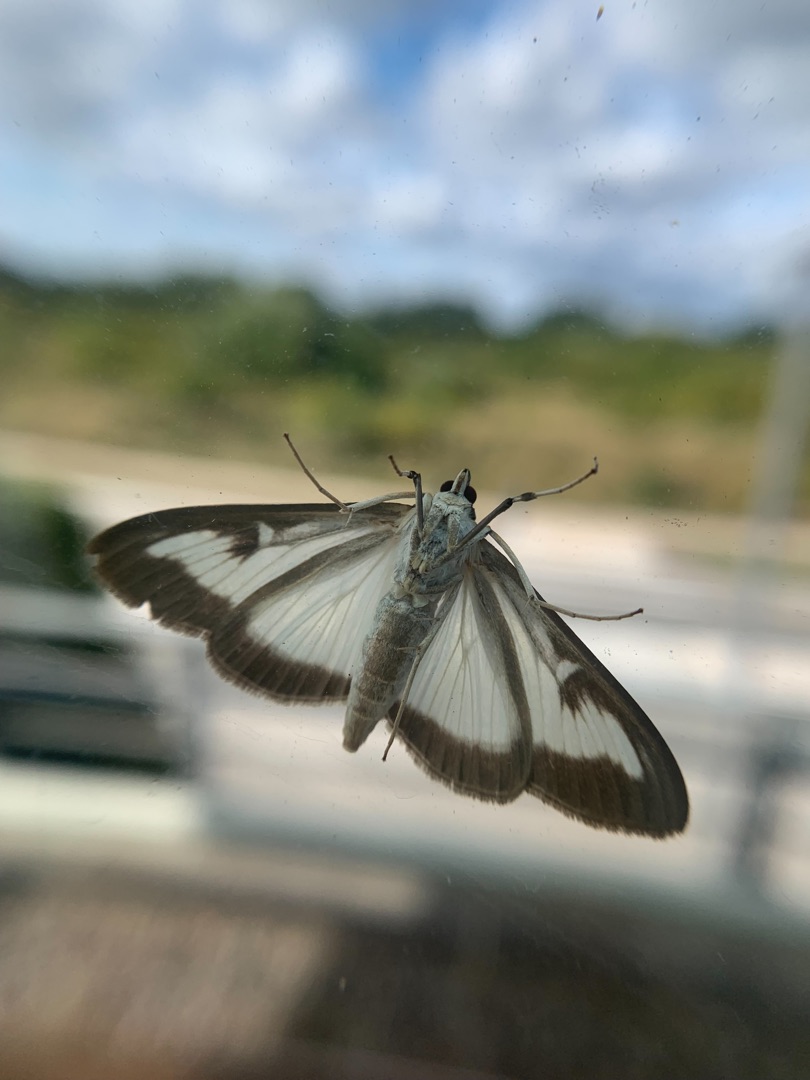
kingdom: Animalia
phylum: Arthropoda
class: Insecta
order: Lepidoptera
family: Crambidae
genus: Cydalima
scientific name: Cydalima perspectalis
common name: Buksbomhalvmøl
